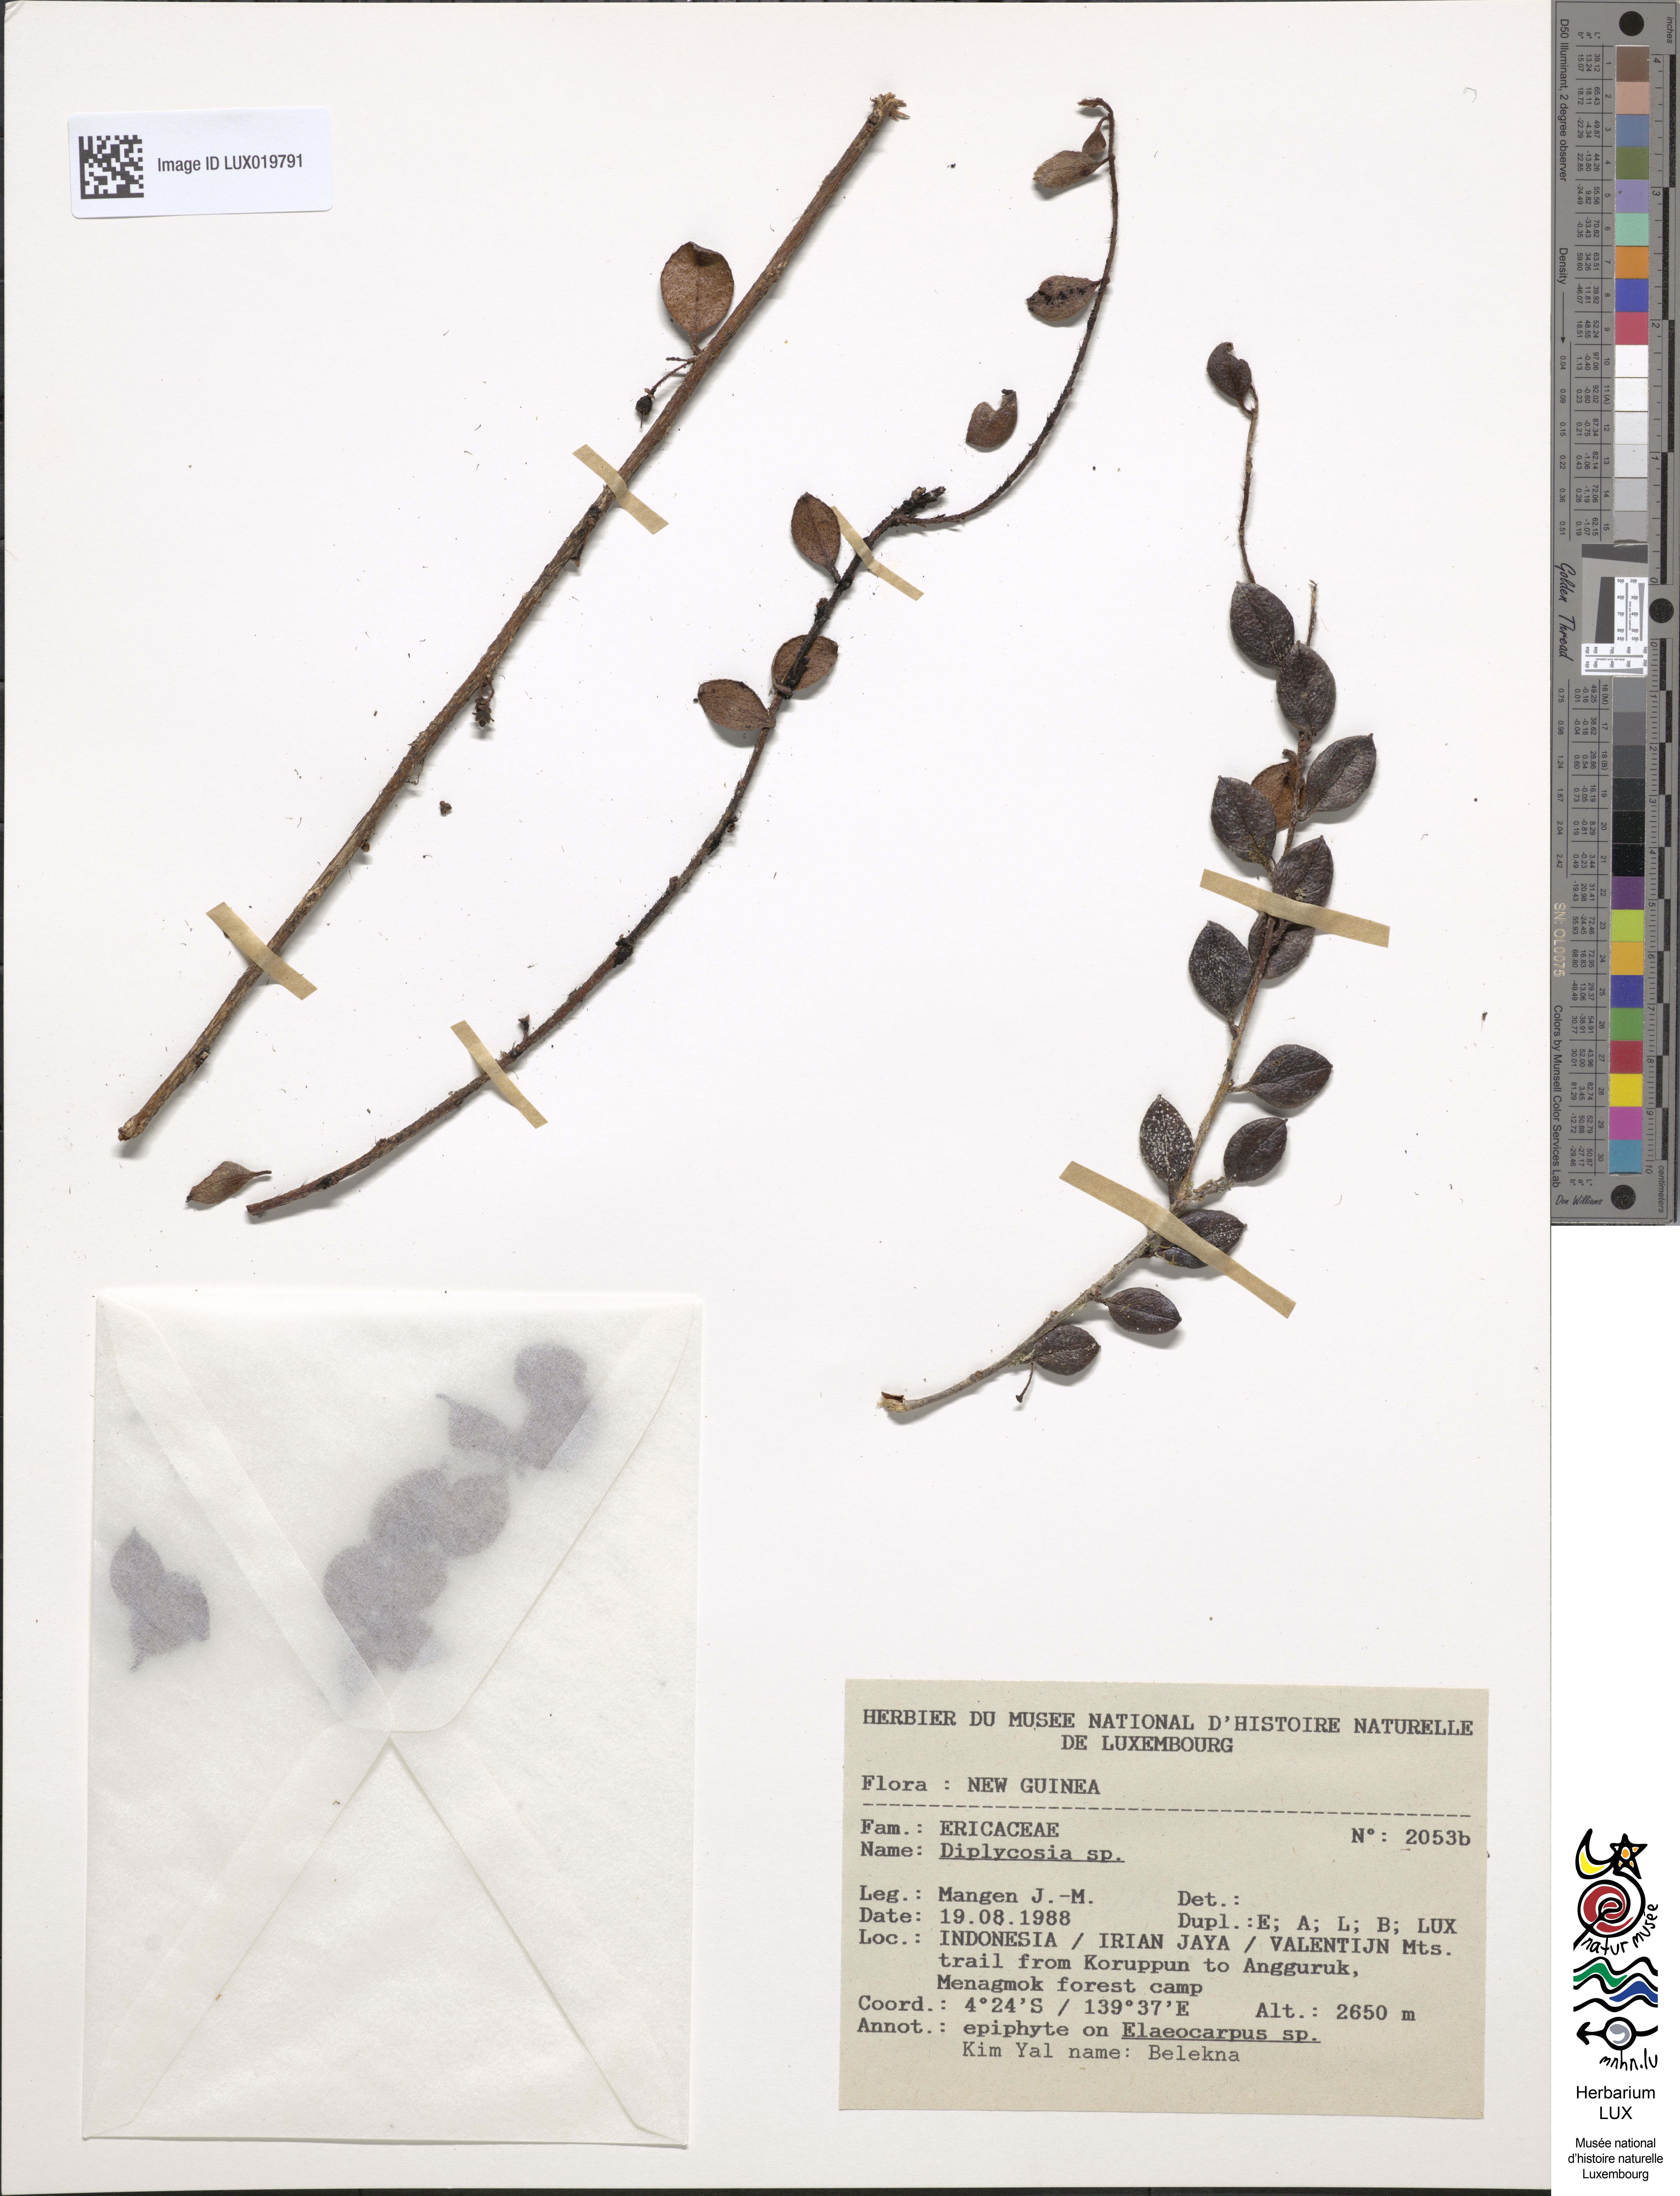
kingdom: Plantae
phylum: Tracheophyta
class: Magnoliopsida
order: Ericales
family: Ericaceae
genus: Gaultheria
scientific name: Gaultheria
